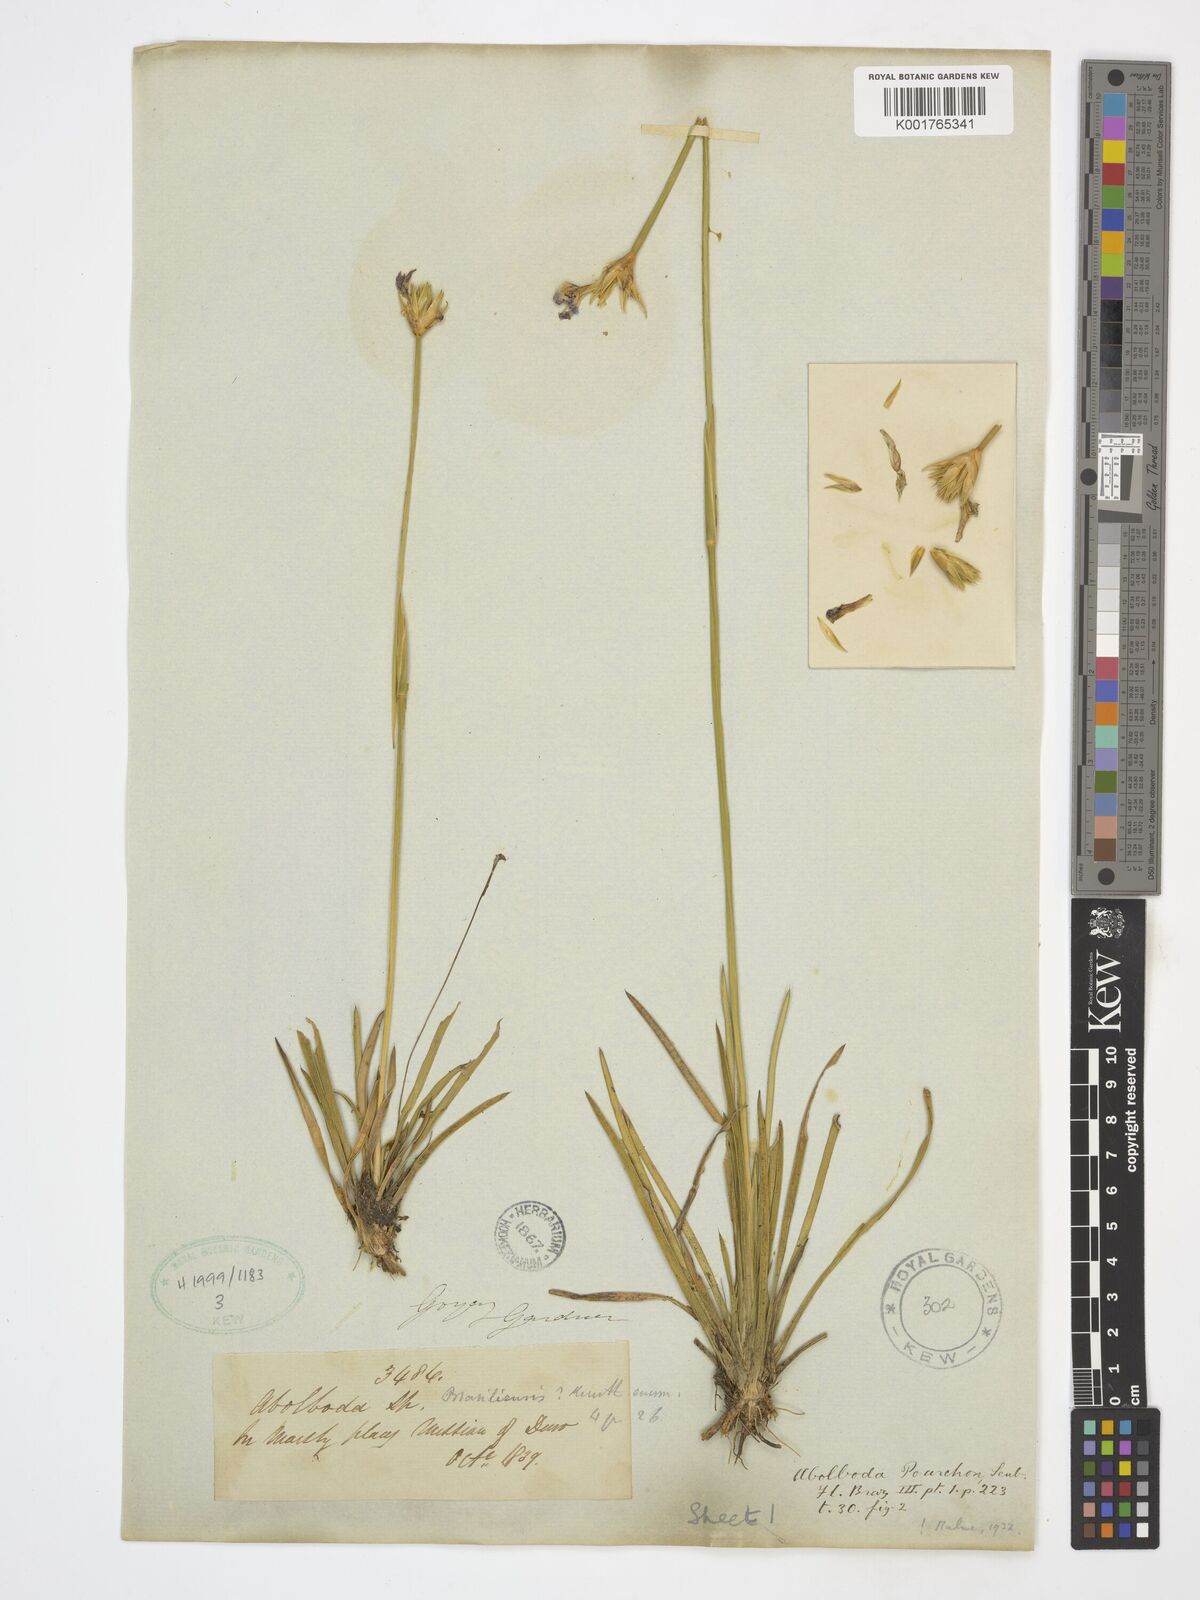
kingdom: Plantae
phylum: Tracheophyta
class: Liliopsida
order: Poales
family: Xyridaceae
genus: Abolboda
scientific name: Abolboda poarchon
